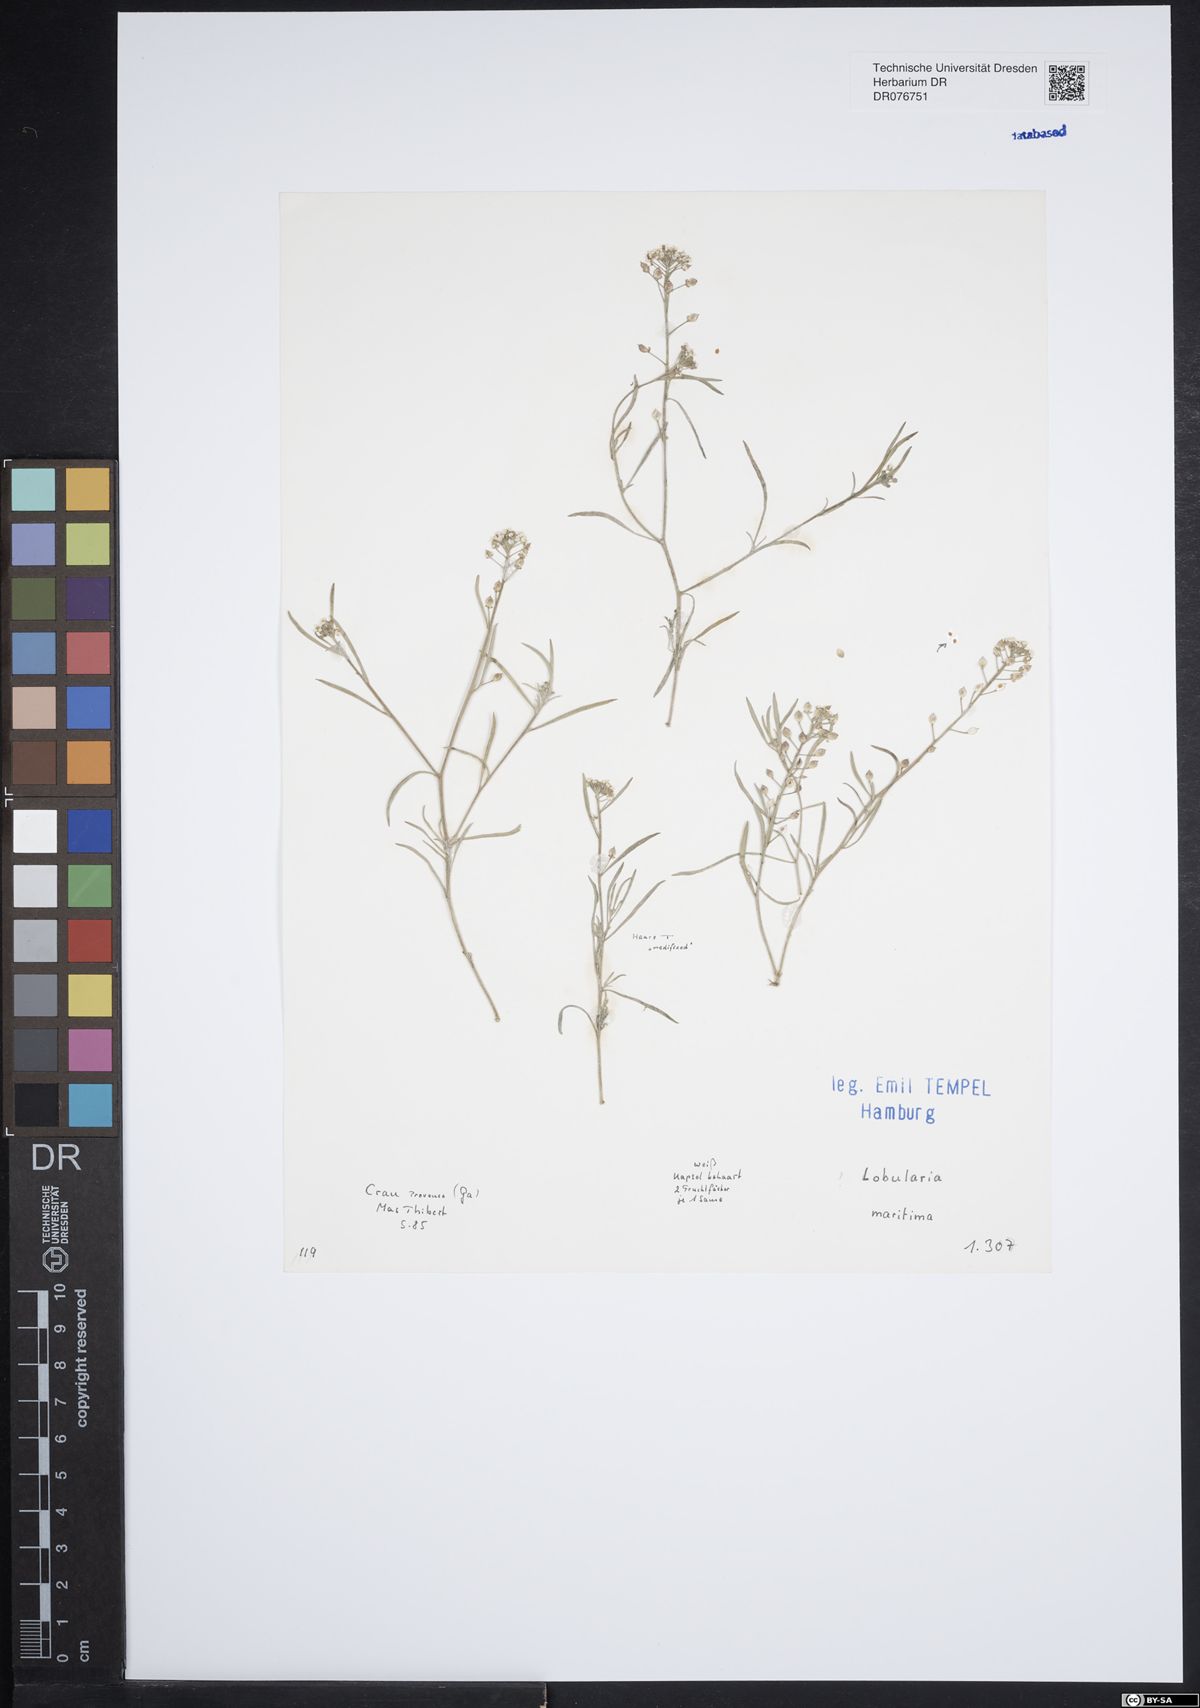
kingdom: Plantae
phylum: Tracheophyta
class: Magnoliopsida
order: Brassicales
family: Brassicaceae
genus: Lobularia
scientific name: Lobularia maritima
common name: Sweet alison
